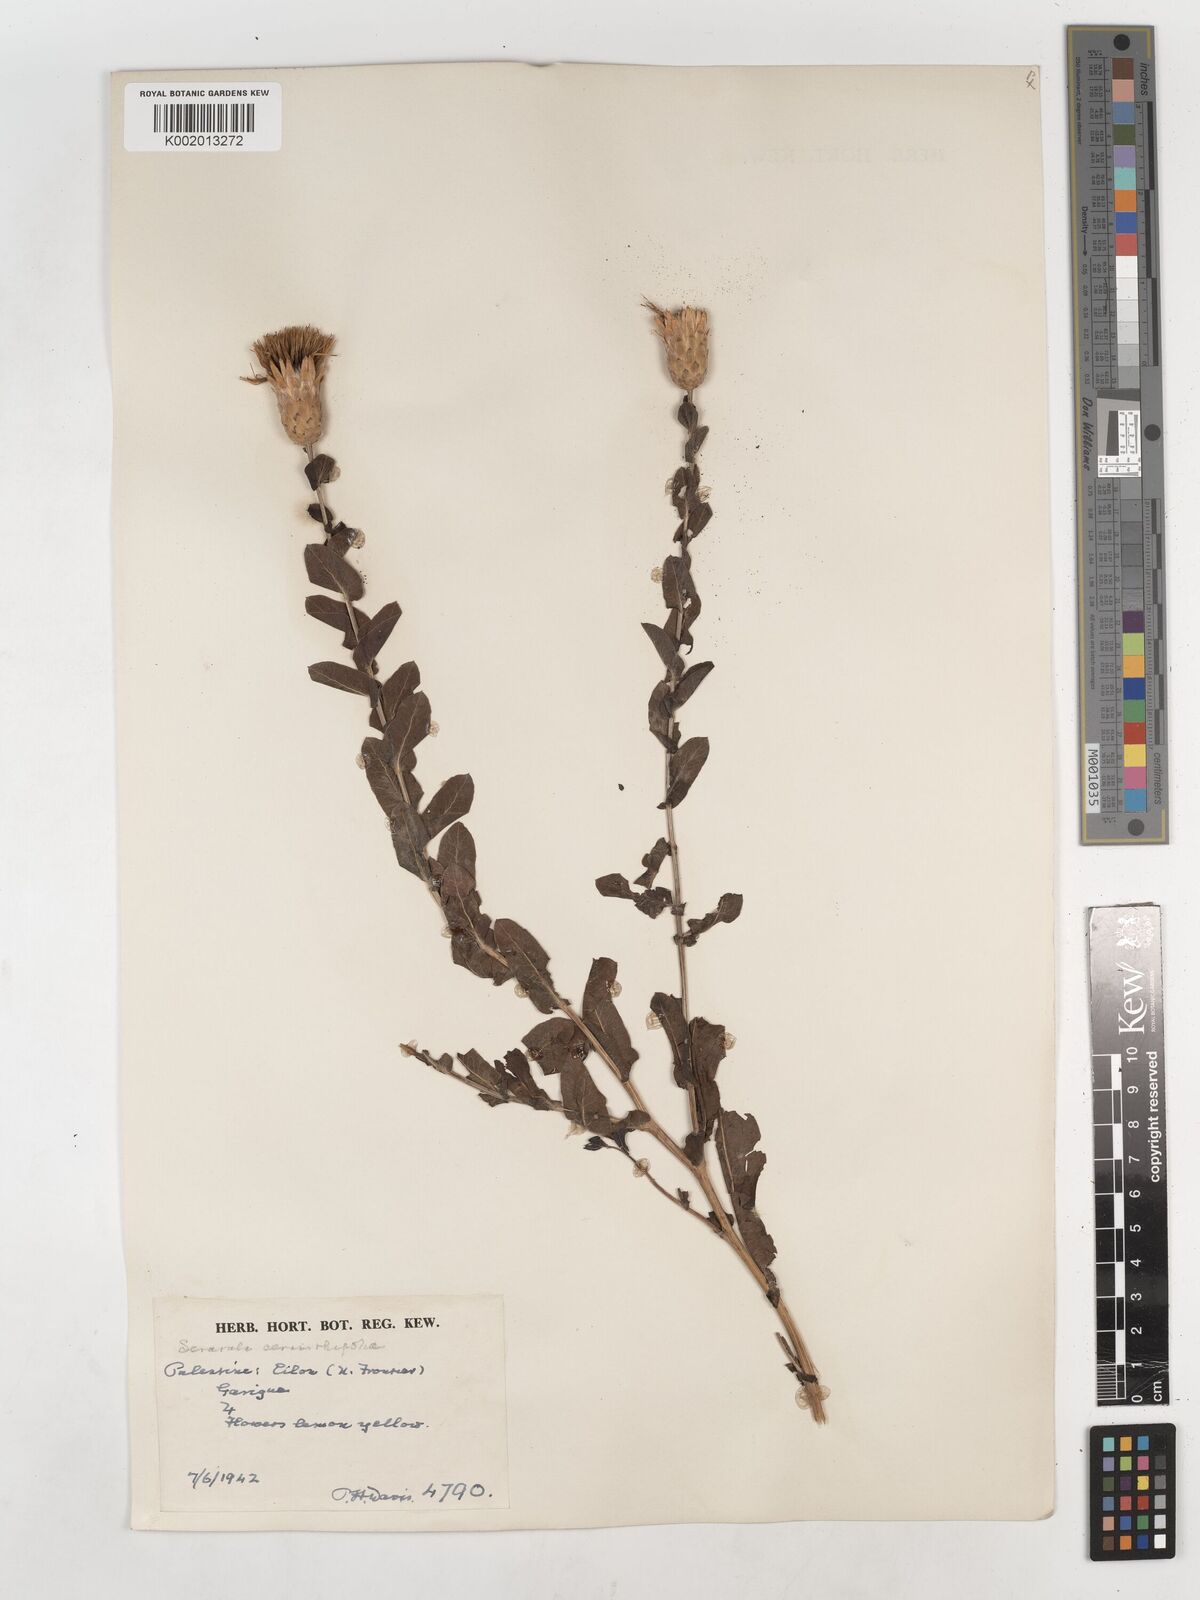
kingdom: Plantae
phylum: Tracheophyta
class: Magnoliopsida
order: Asterales
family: Asteraceae
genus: Klasea
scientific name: Klasea cerinthifolia
